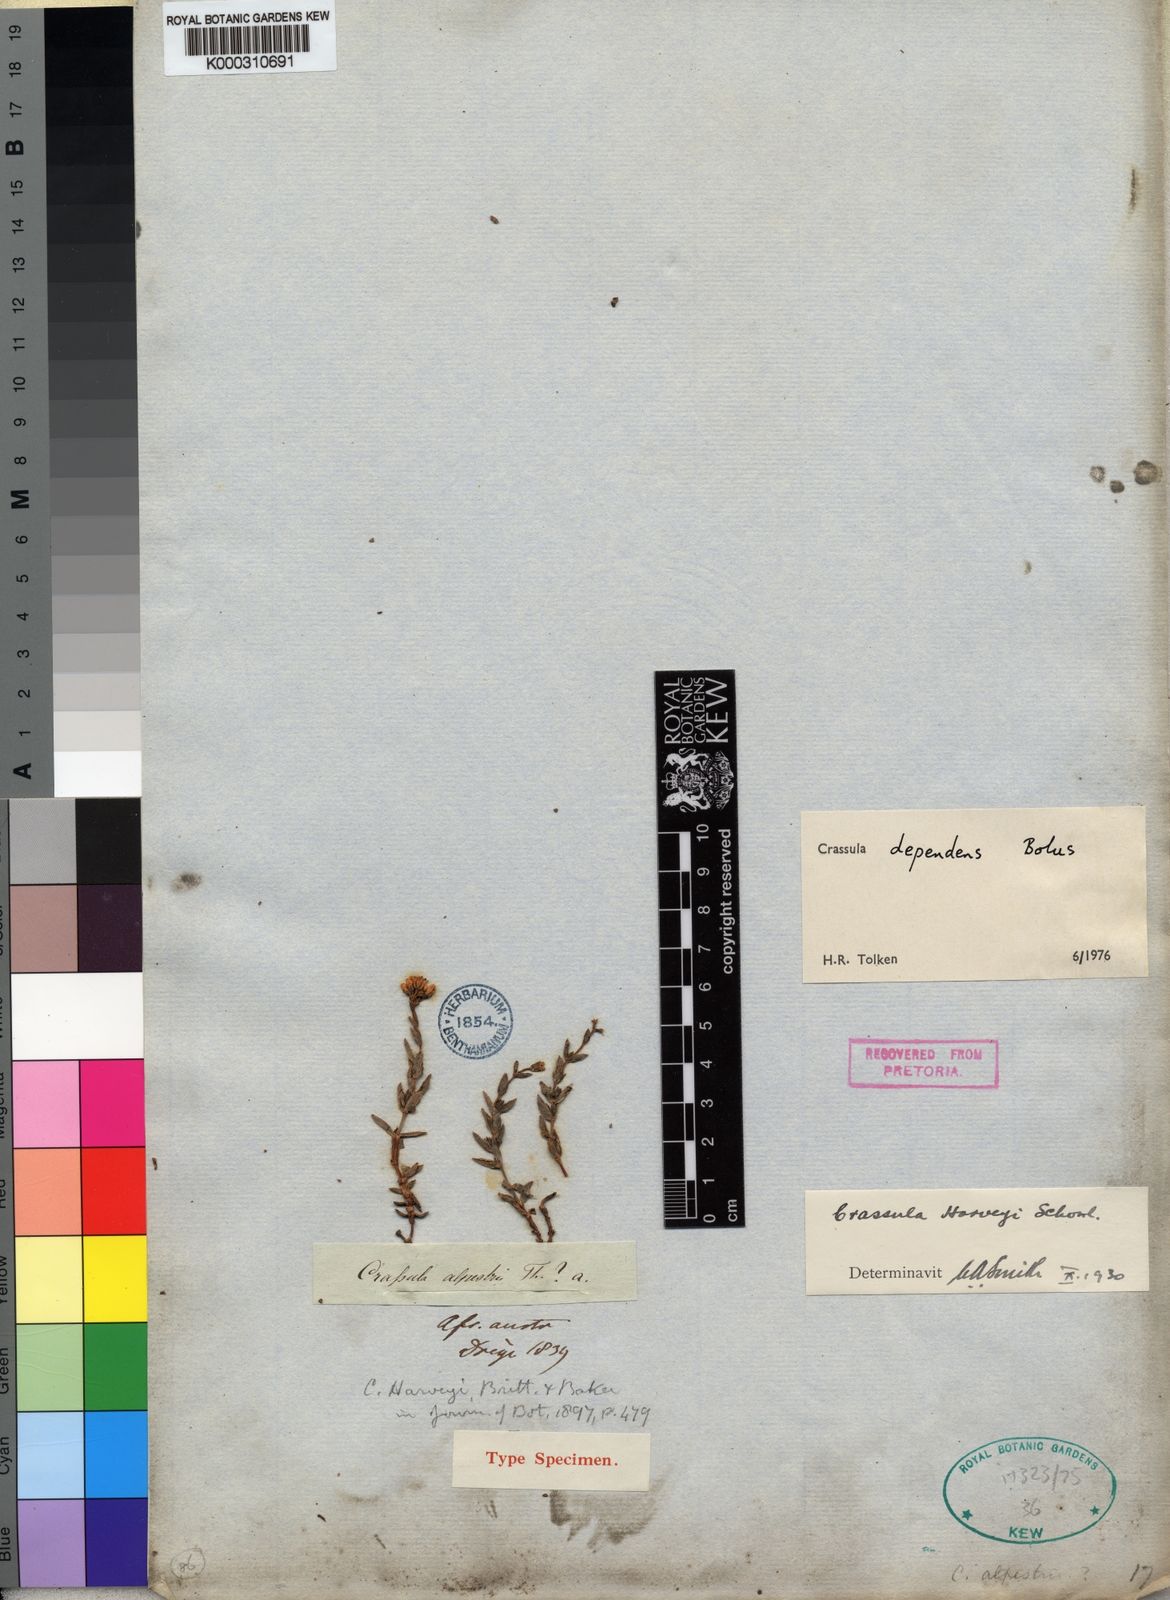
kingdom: Plantae
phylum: Tracheophyta
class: Magnoliopsida
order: Saxifragales
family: Crassulaceae
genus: Crassula
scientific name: Crassula dependens
